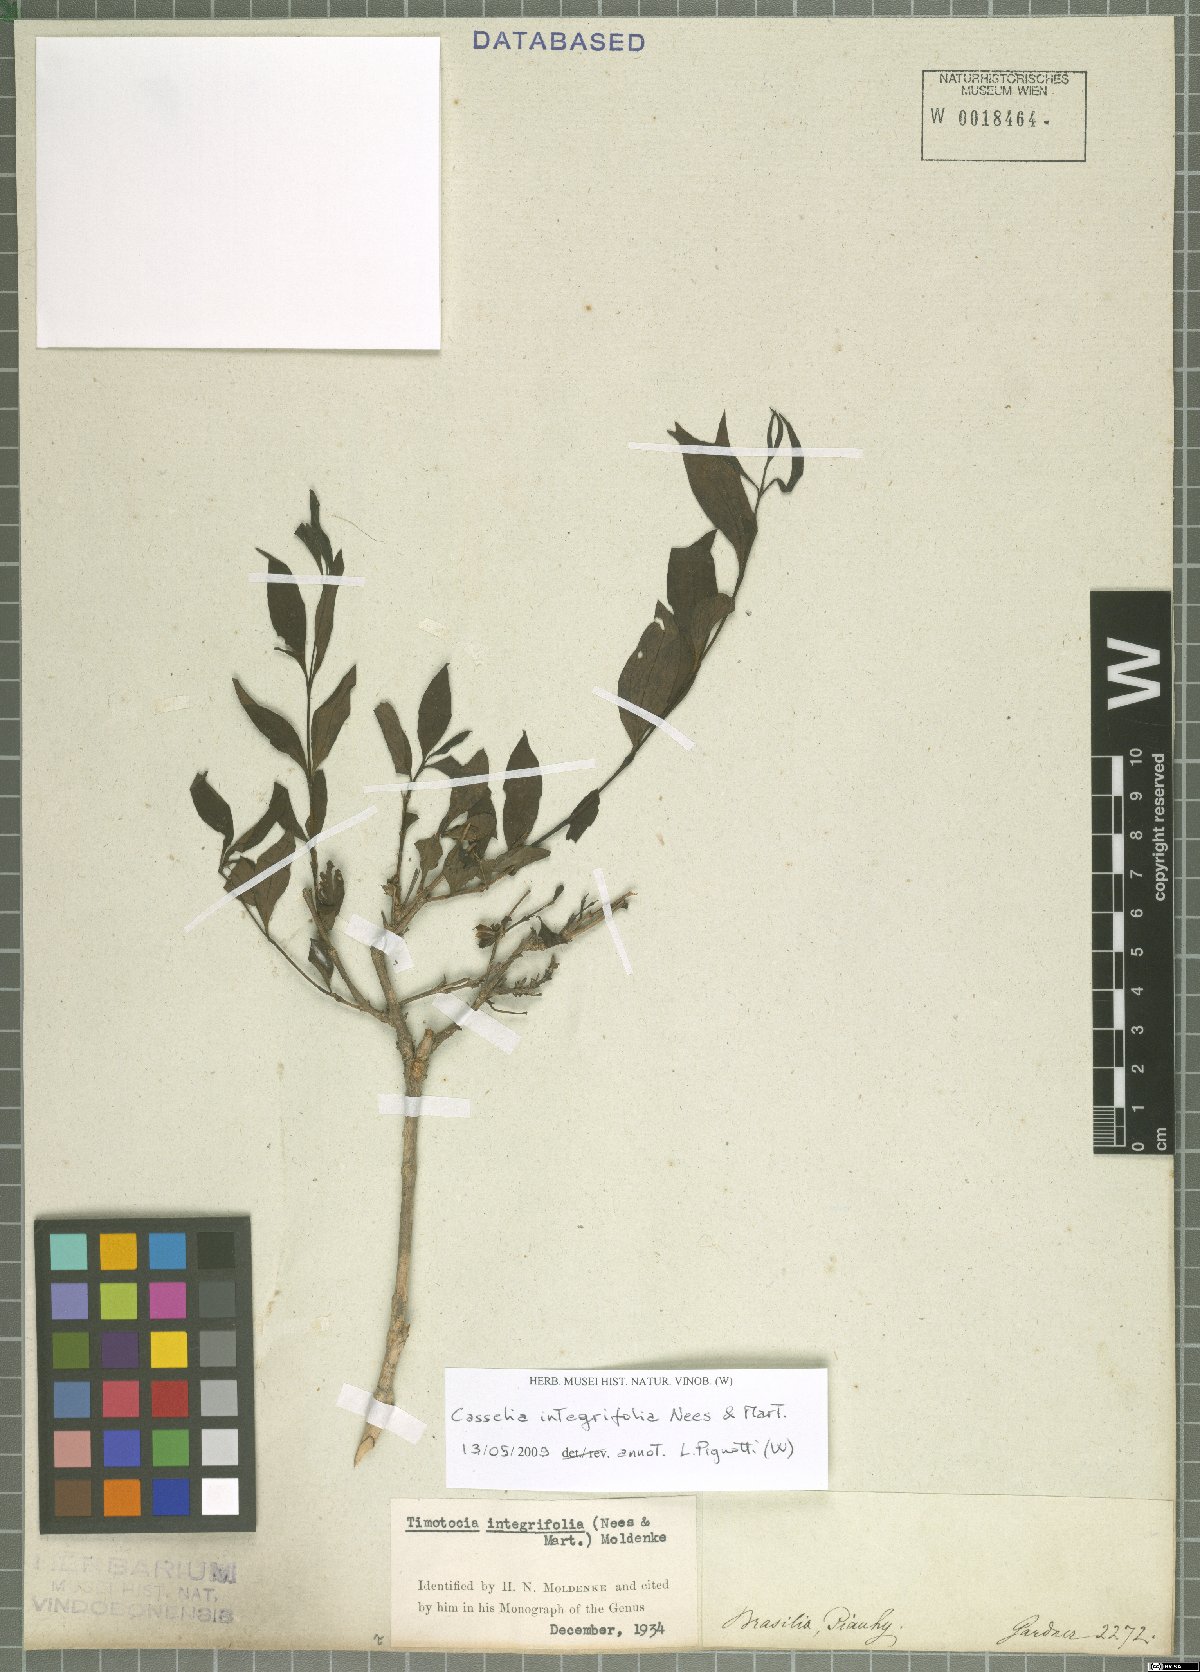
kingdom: Plantae
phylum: Tracheophyta
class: Magnoliopsida
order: Lamiales
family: Verbenaceae
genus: Casselia
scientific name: Casselia integrifolia
